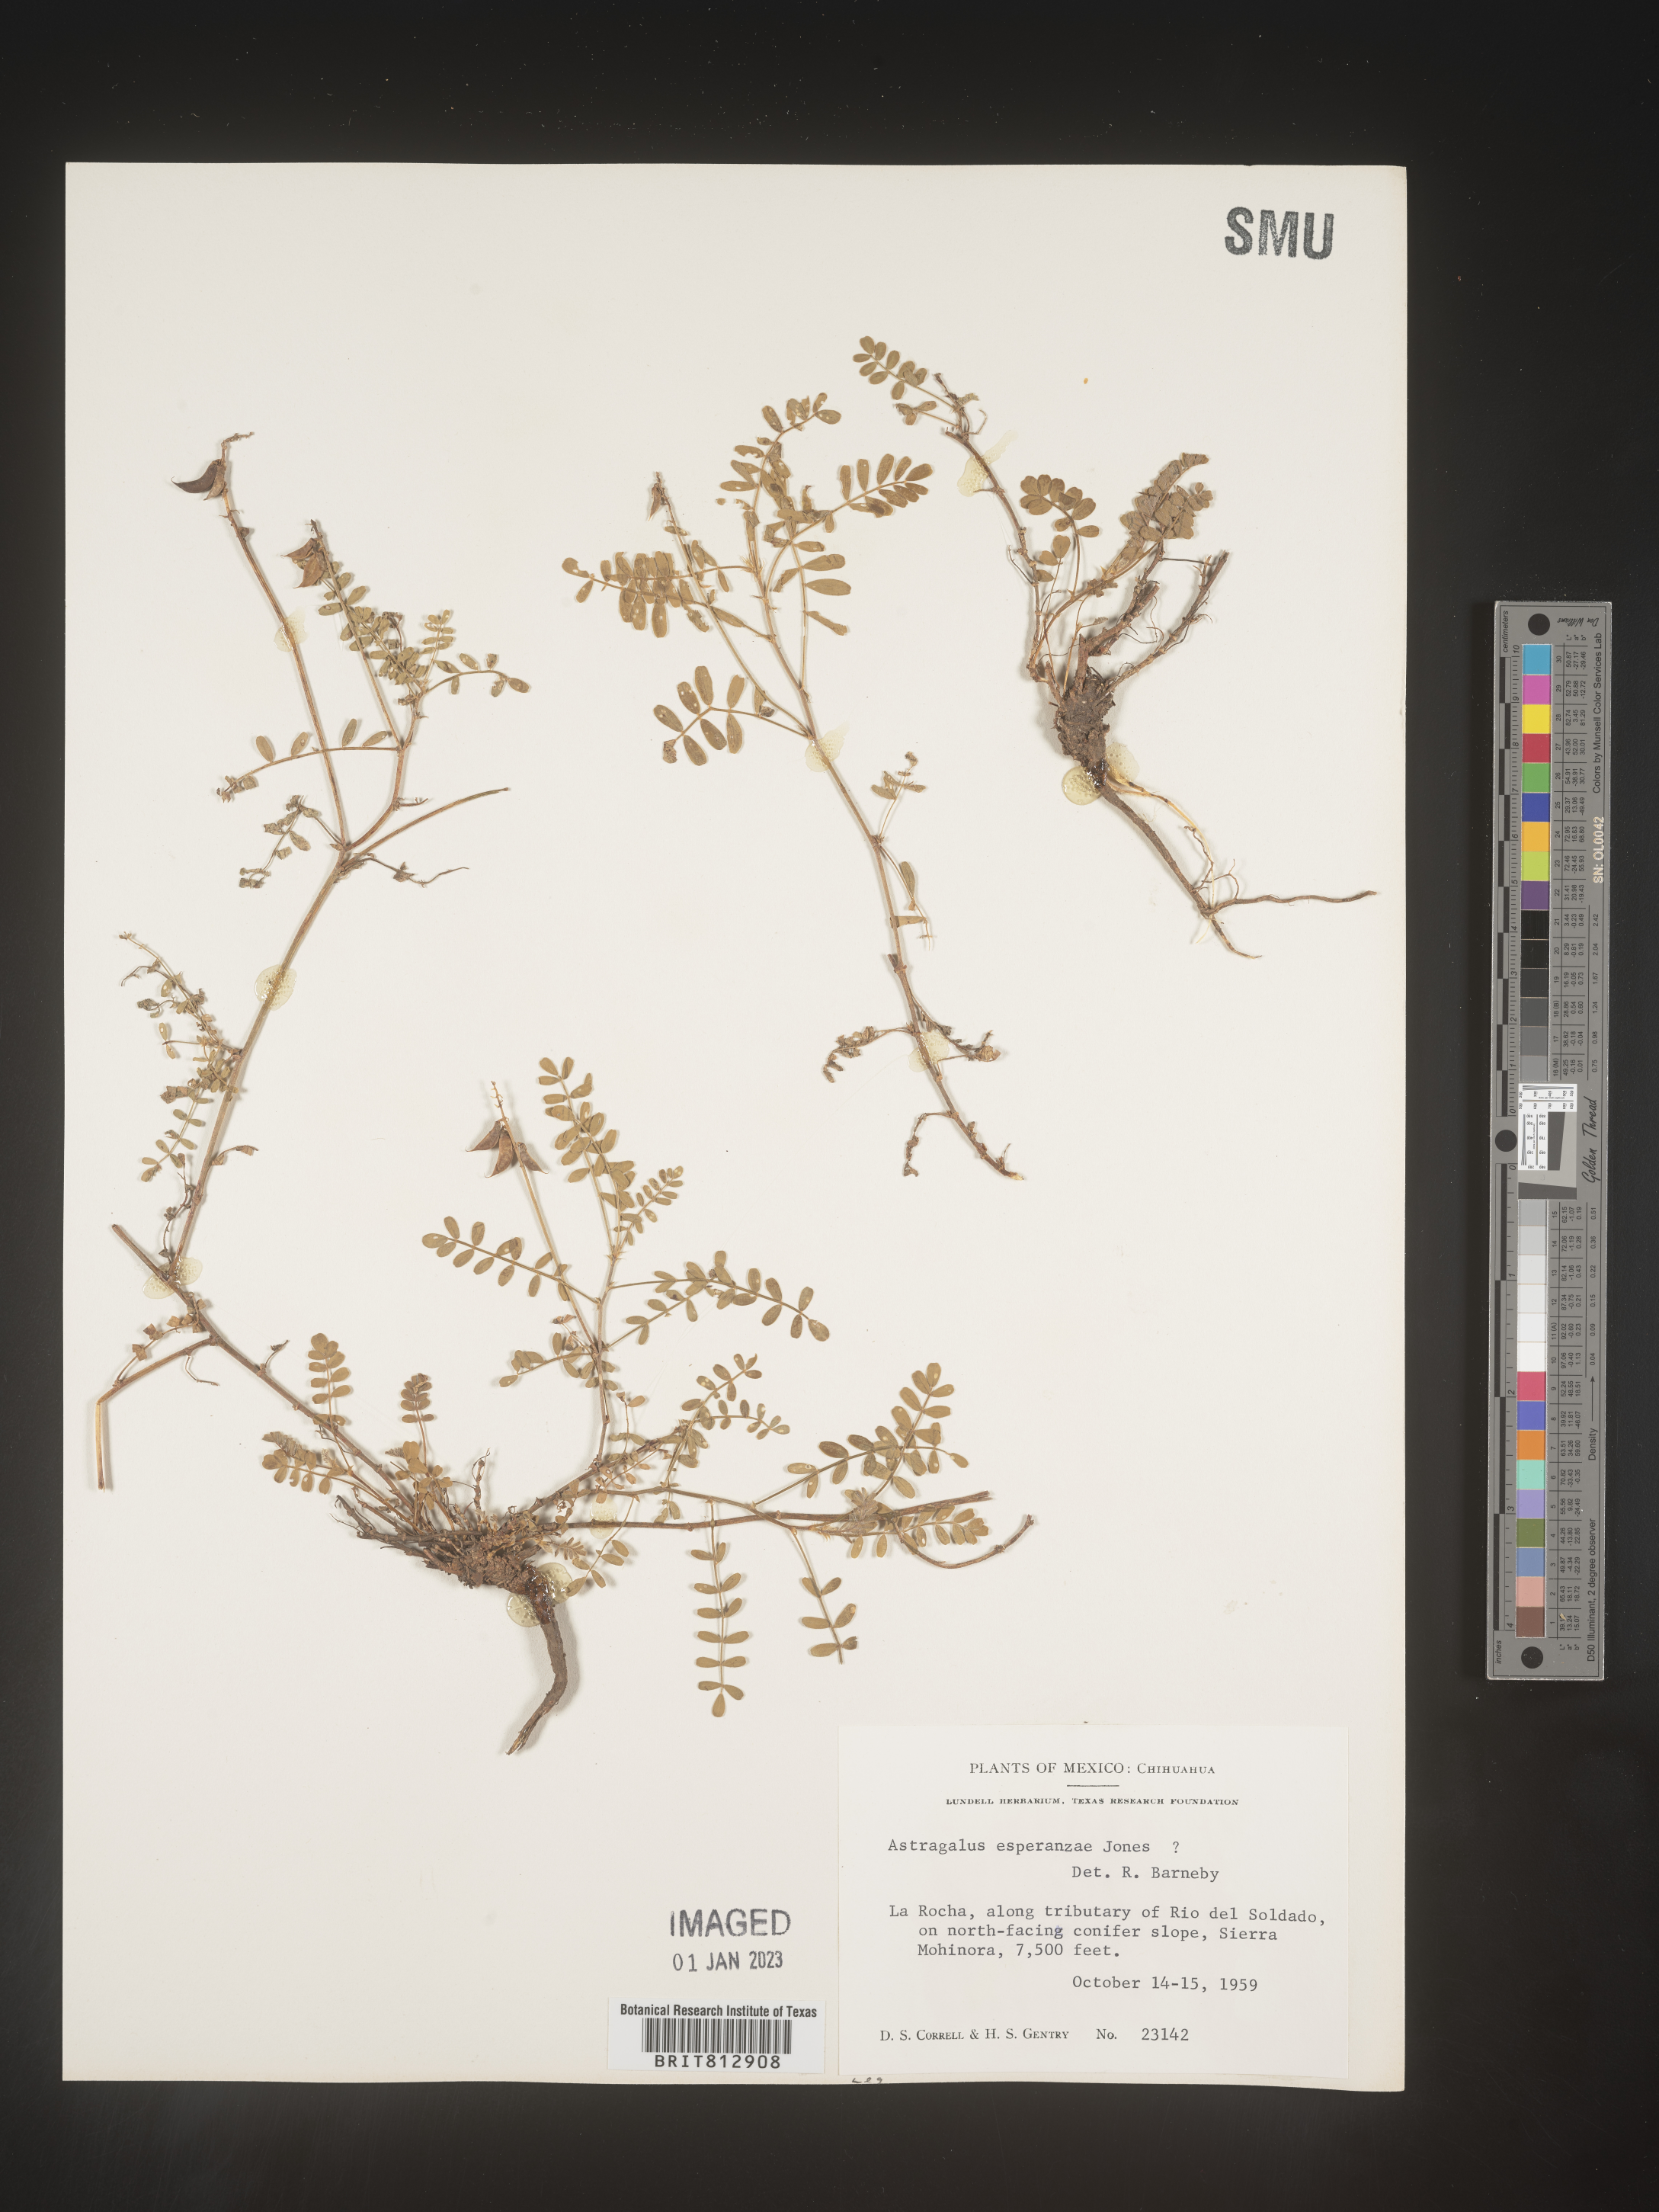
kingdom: Plantae
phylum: Tracheophyta
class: Magnoliopsida
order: Fabales
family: Fabaceae
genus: Astragalus
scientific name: Astragalus
